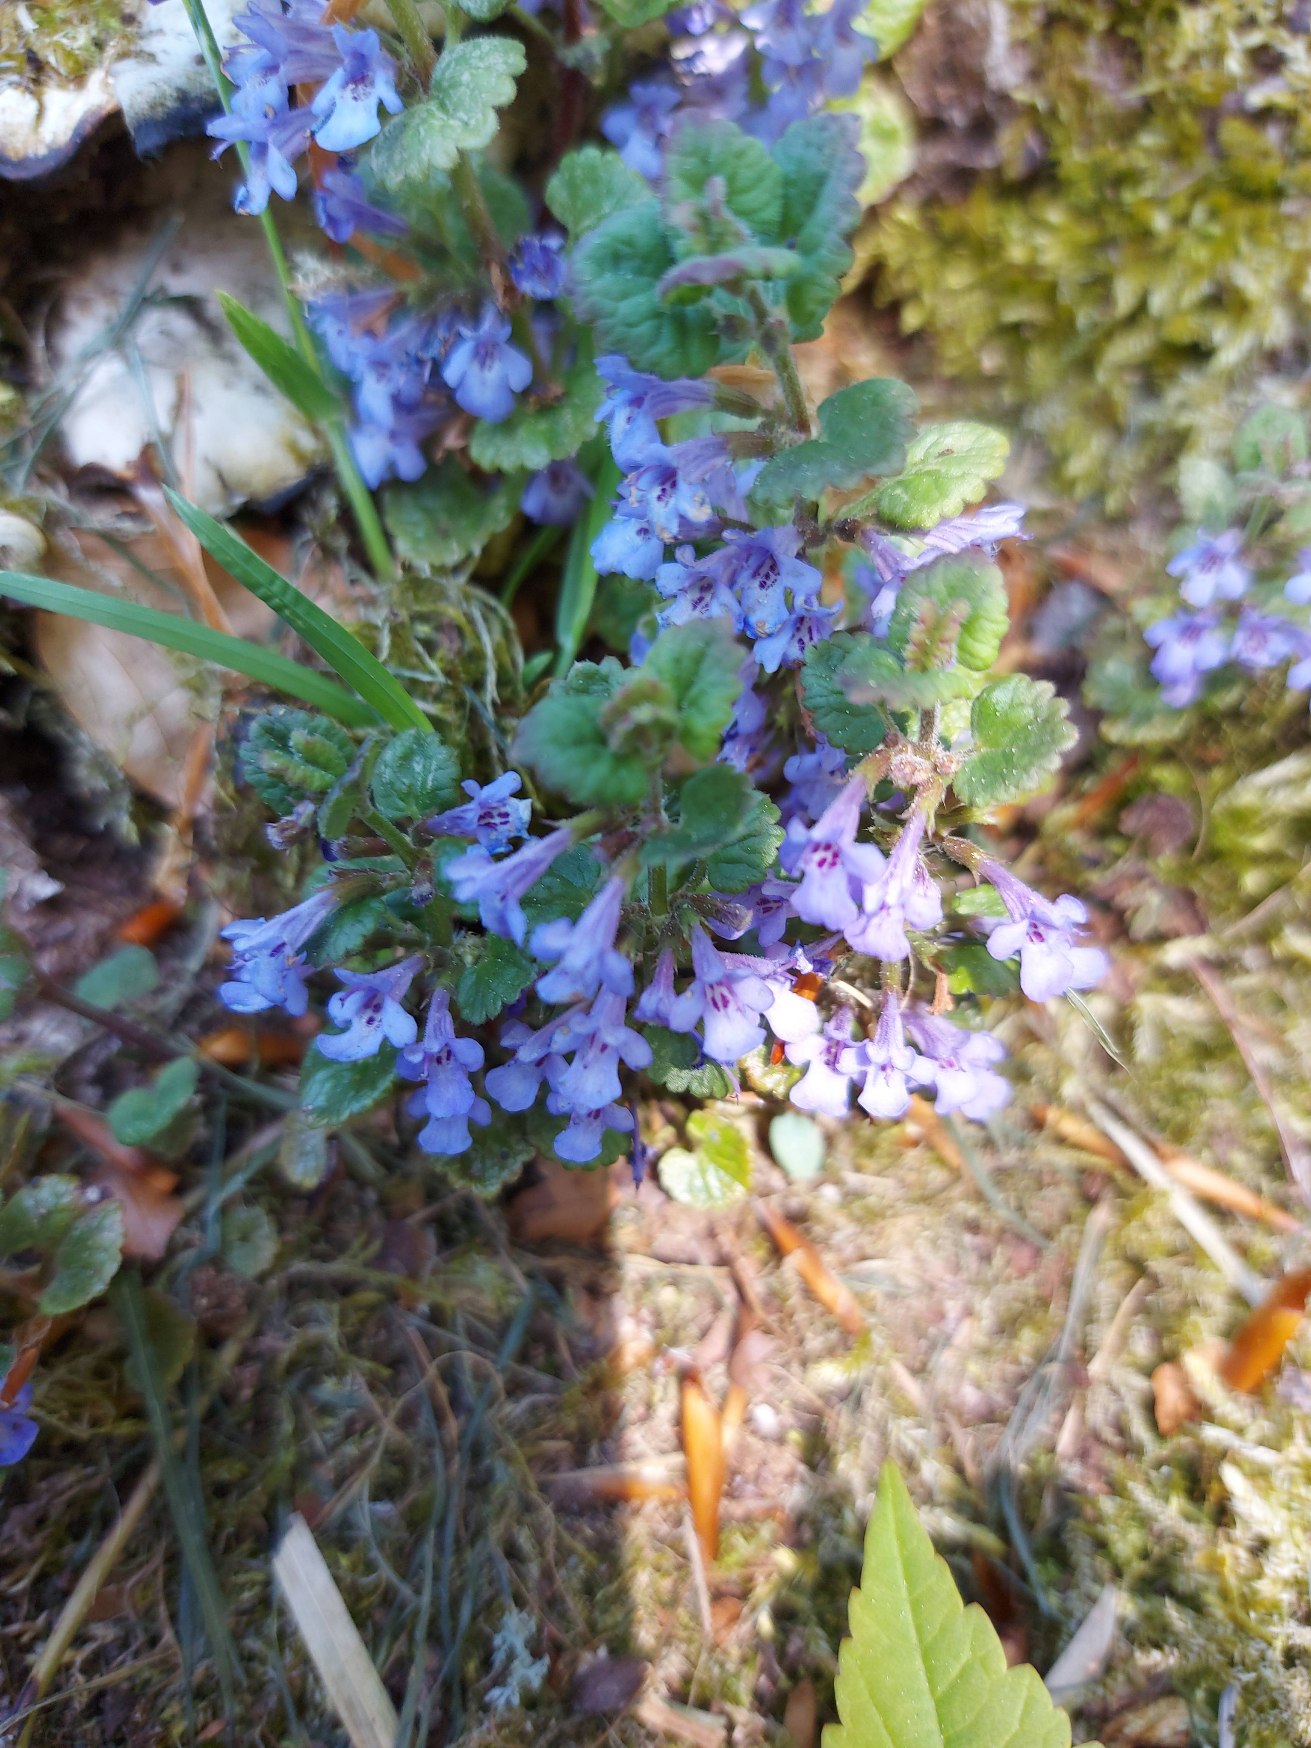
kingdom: Plantae
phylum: Tracheophyta
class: Magnoliopsida
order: Lamiales
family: Lamiaceae
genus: Glechoma
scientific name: Glechoma hederacea
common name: Korsknap
